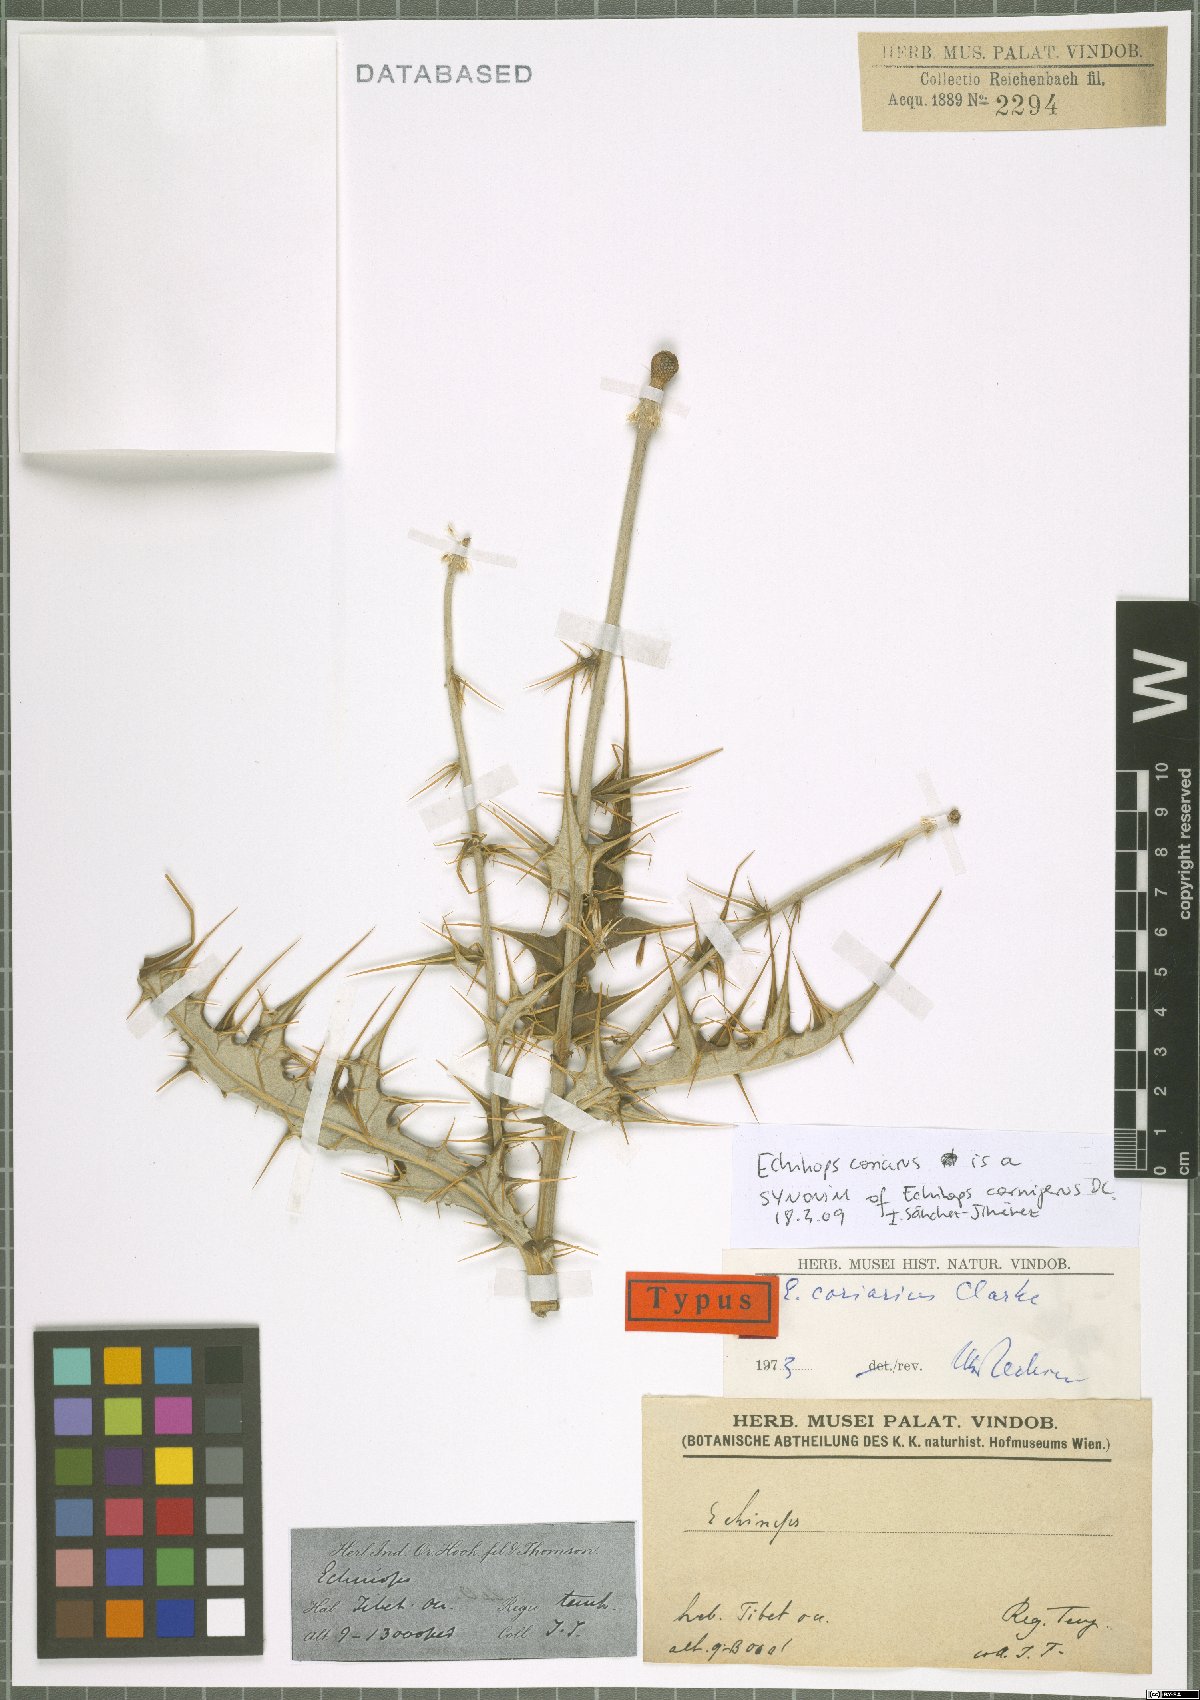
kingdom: Plantae
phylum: Tracheophyta
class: Magnoliopsida
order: Asterales
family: Asteraceae
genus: Echinops
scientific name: Echinops cornigerus
